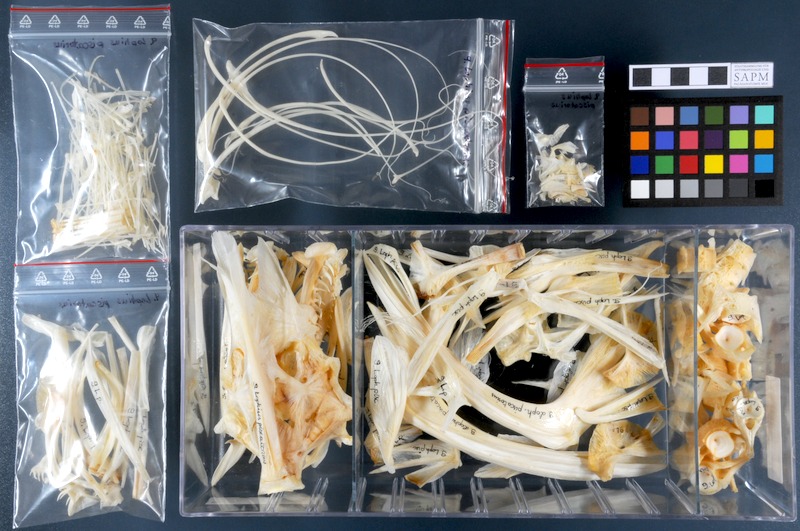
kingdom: Animalia
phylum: Chordata
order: Lophiiformes
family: Lophiidae
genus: Lophius
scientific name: Lophius piscatorius
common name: Angler
